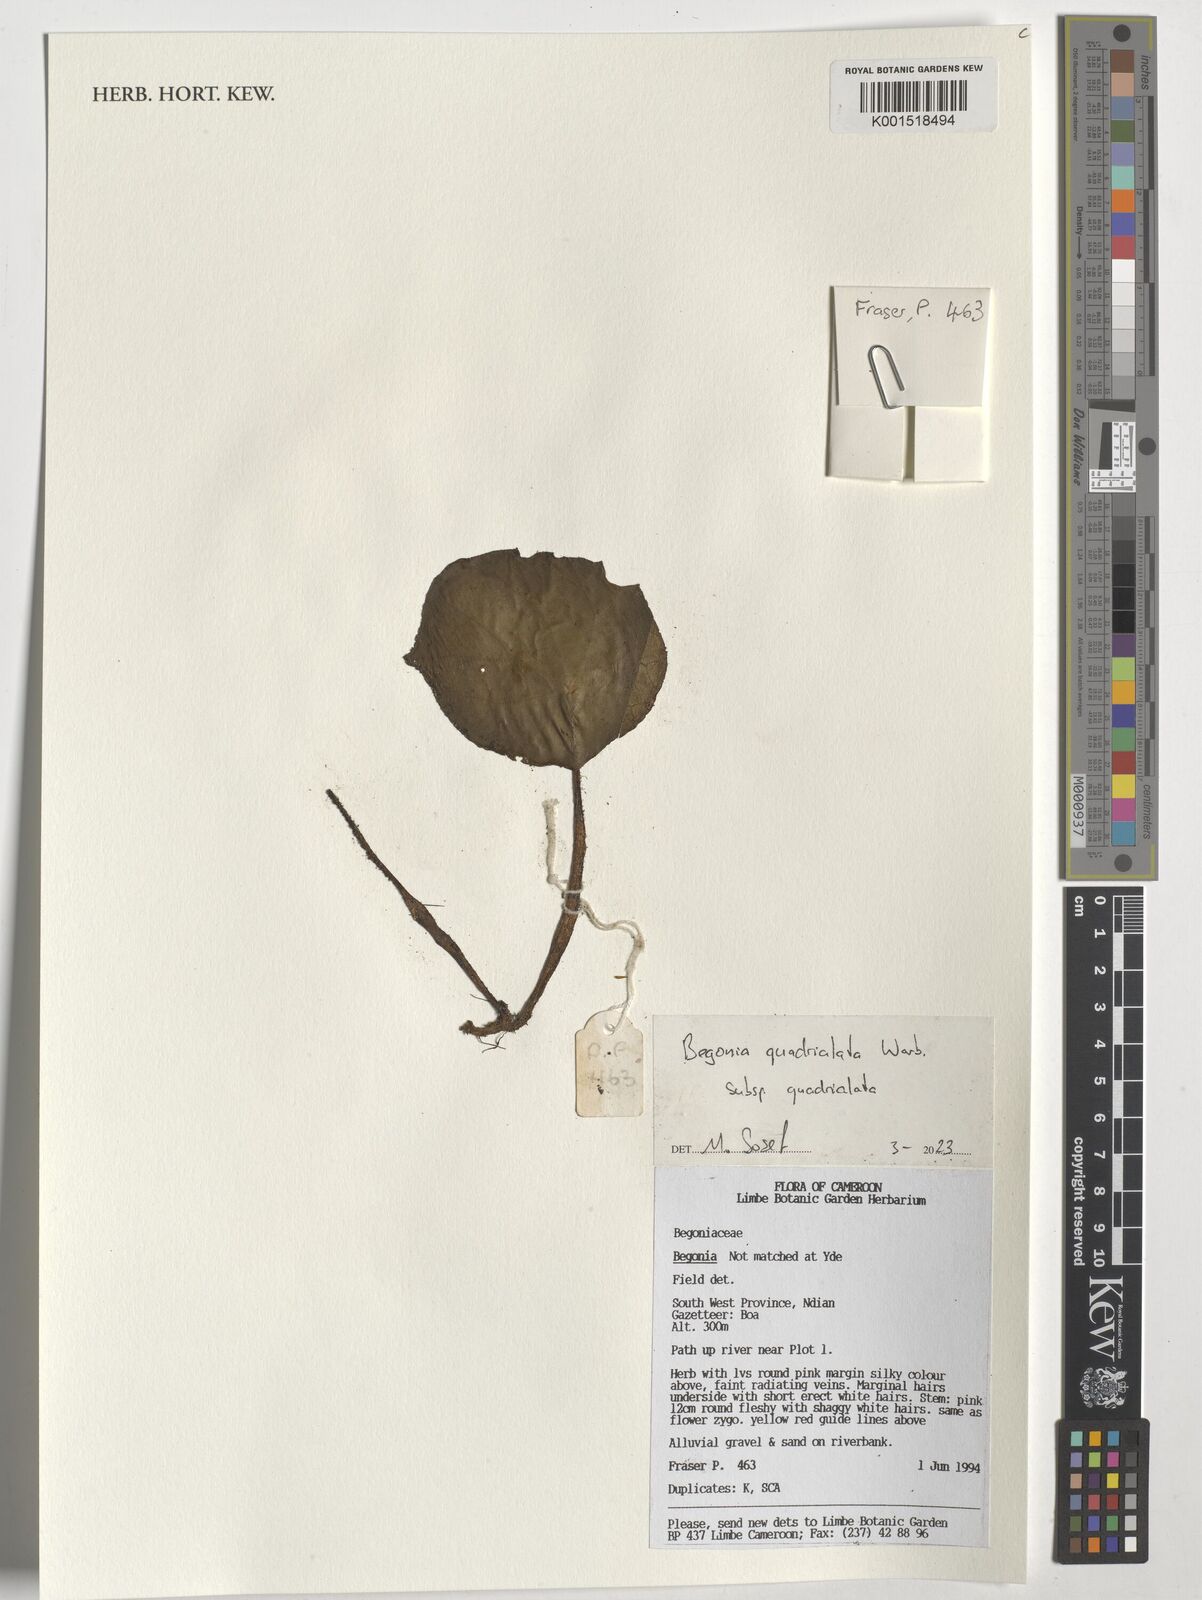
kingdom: Plantae
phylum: Tracheophyta
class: Magnoliopsida
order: Cucurbitales
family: Begoniaceae
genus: Begonia
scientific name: Begonia quadrialata
